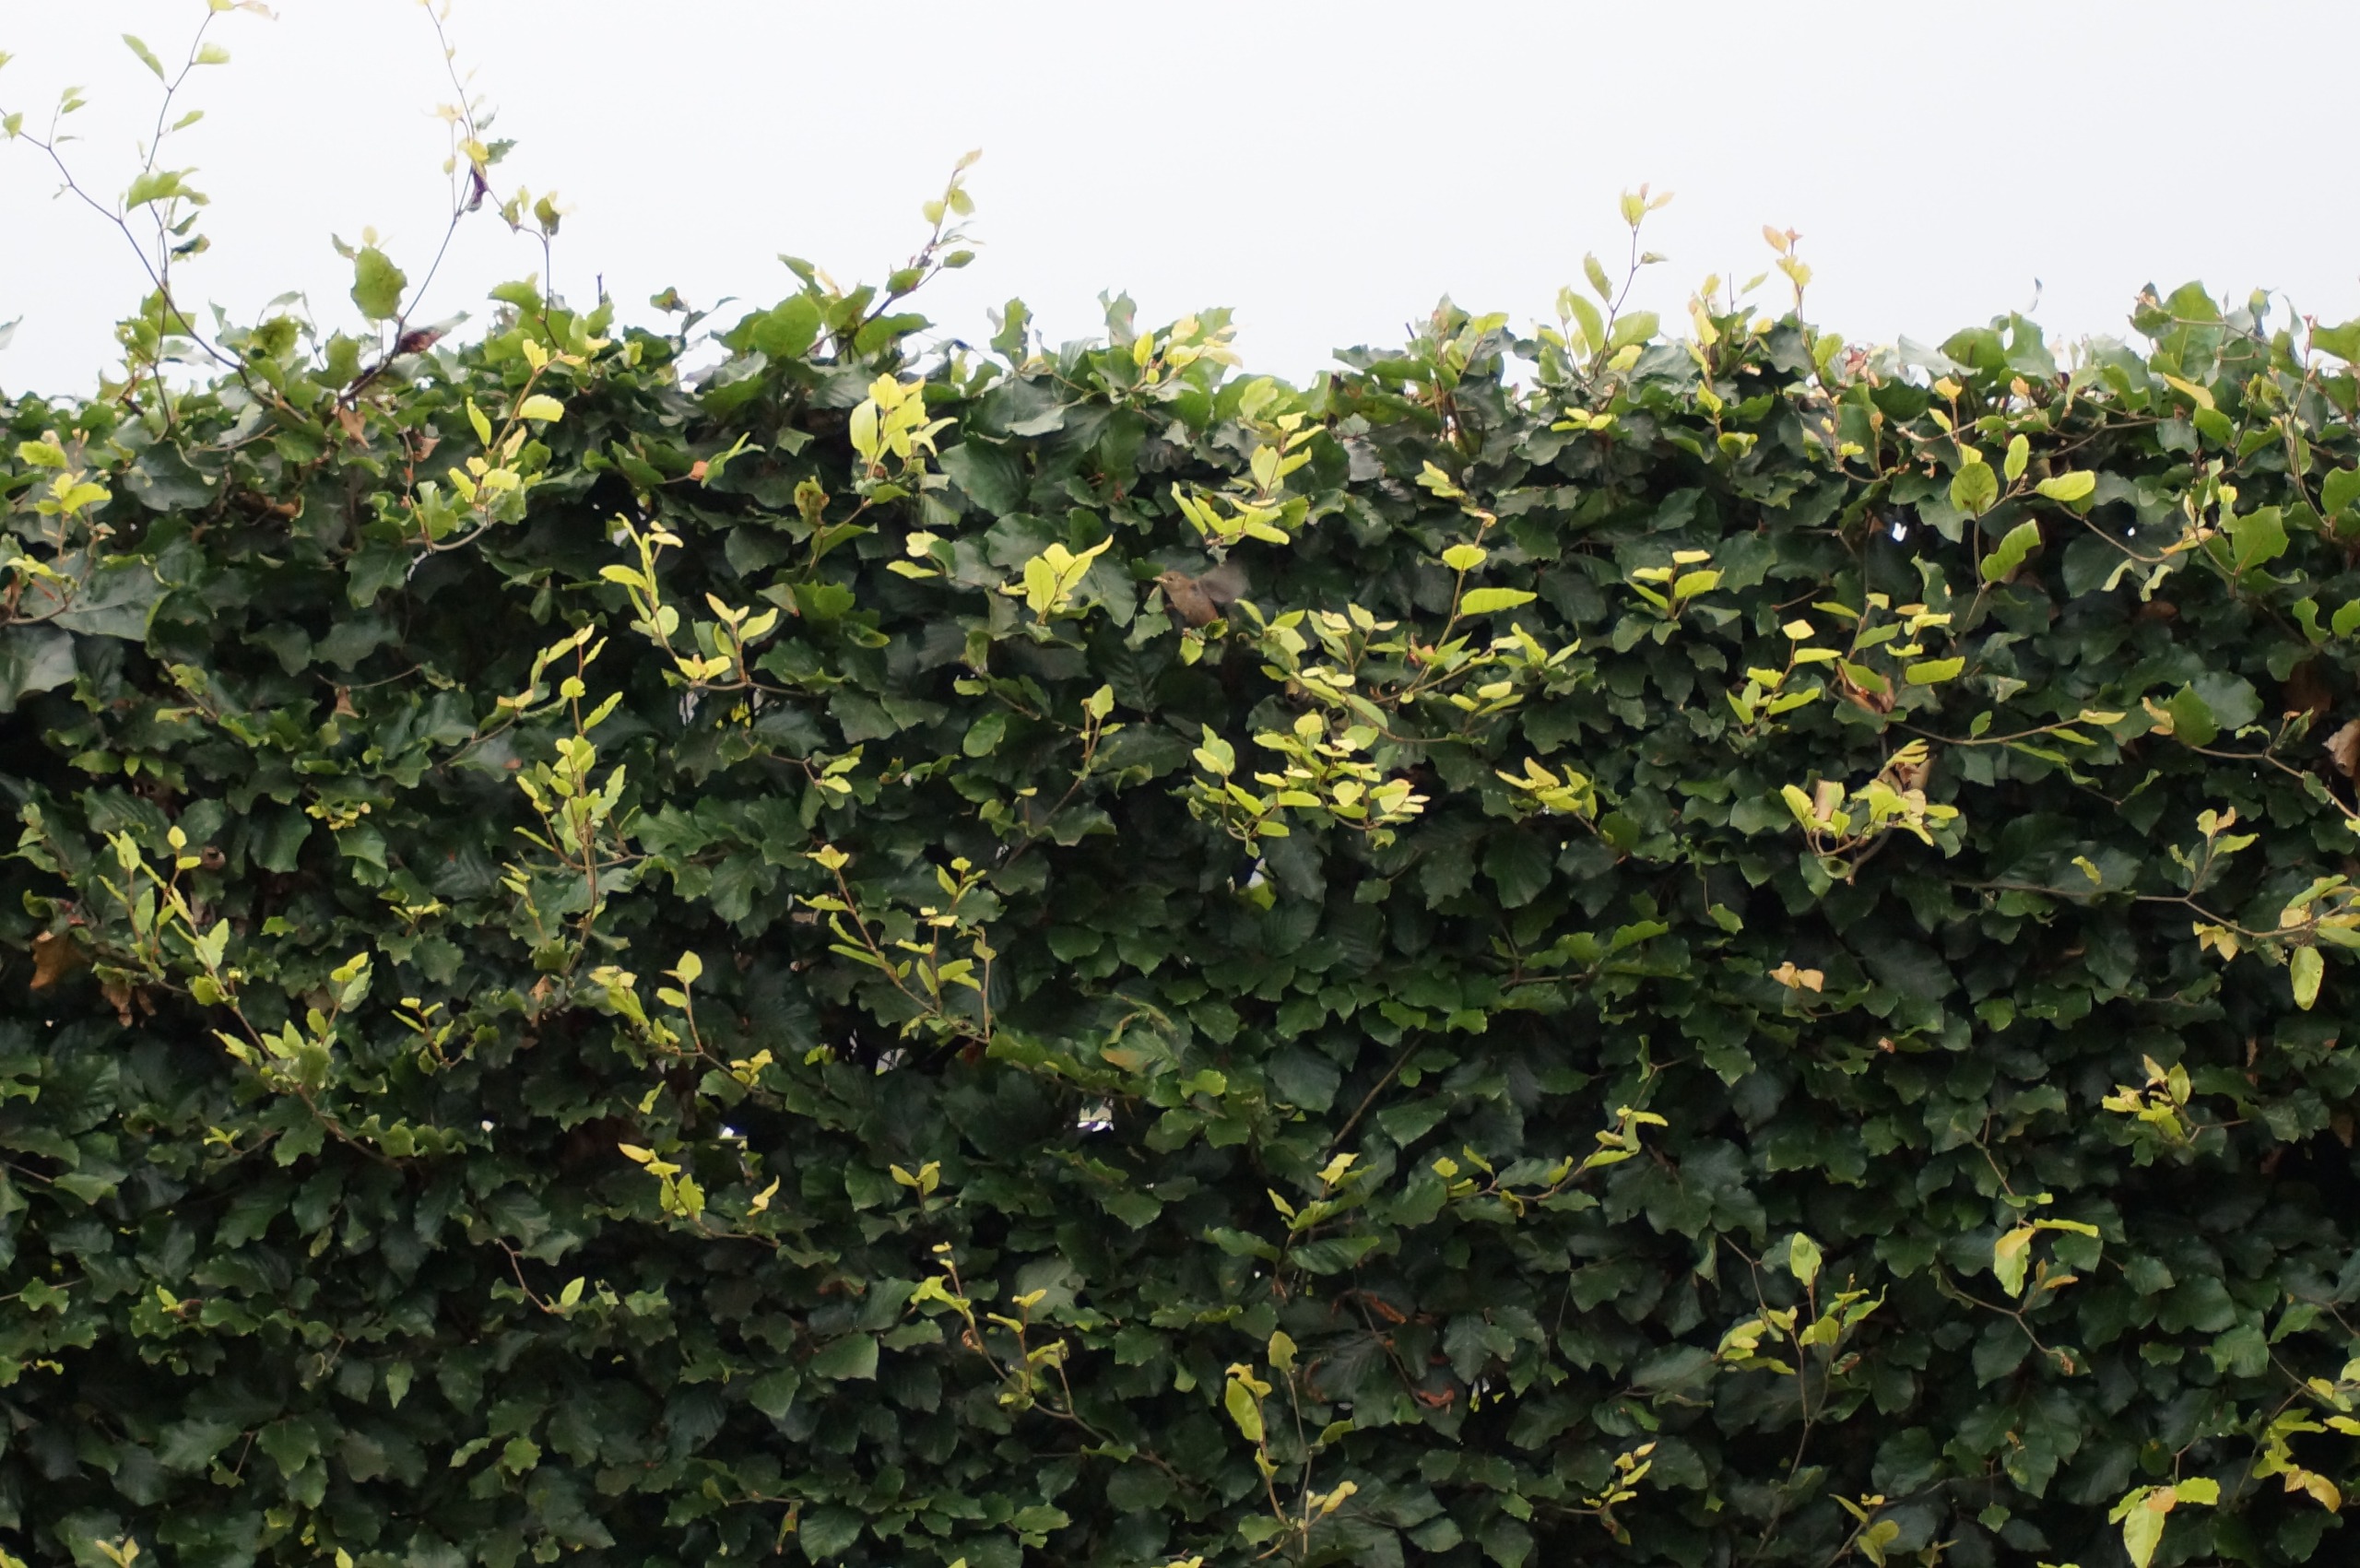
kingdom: Animalia
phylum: Chordata
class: Aves
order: Passeriformes
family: Troglodytidae
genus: Troglodytes
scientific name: Troglodytes troglodytes
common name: Gærdesmutte
